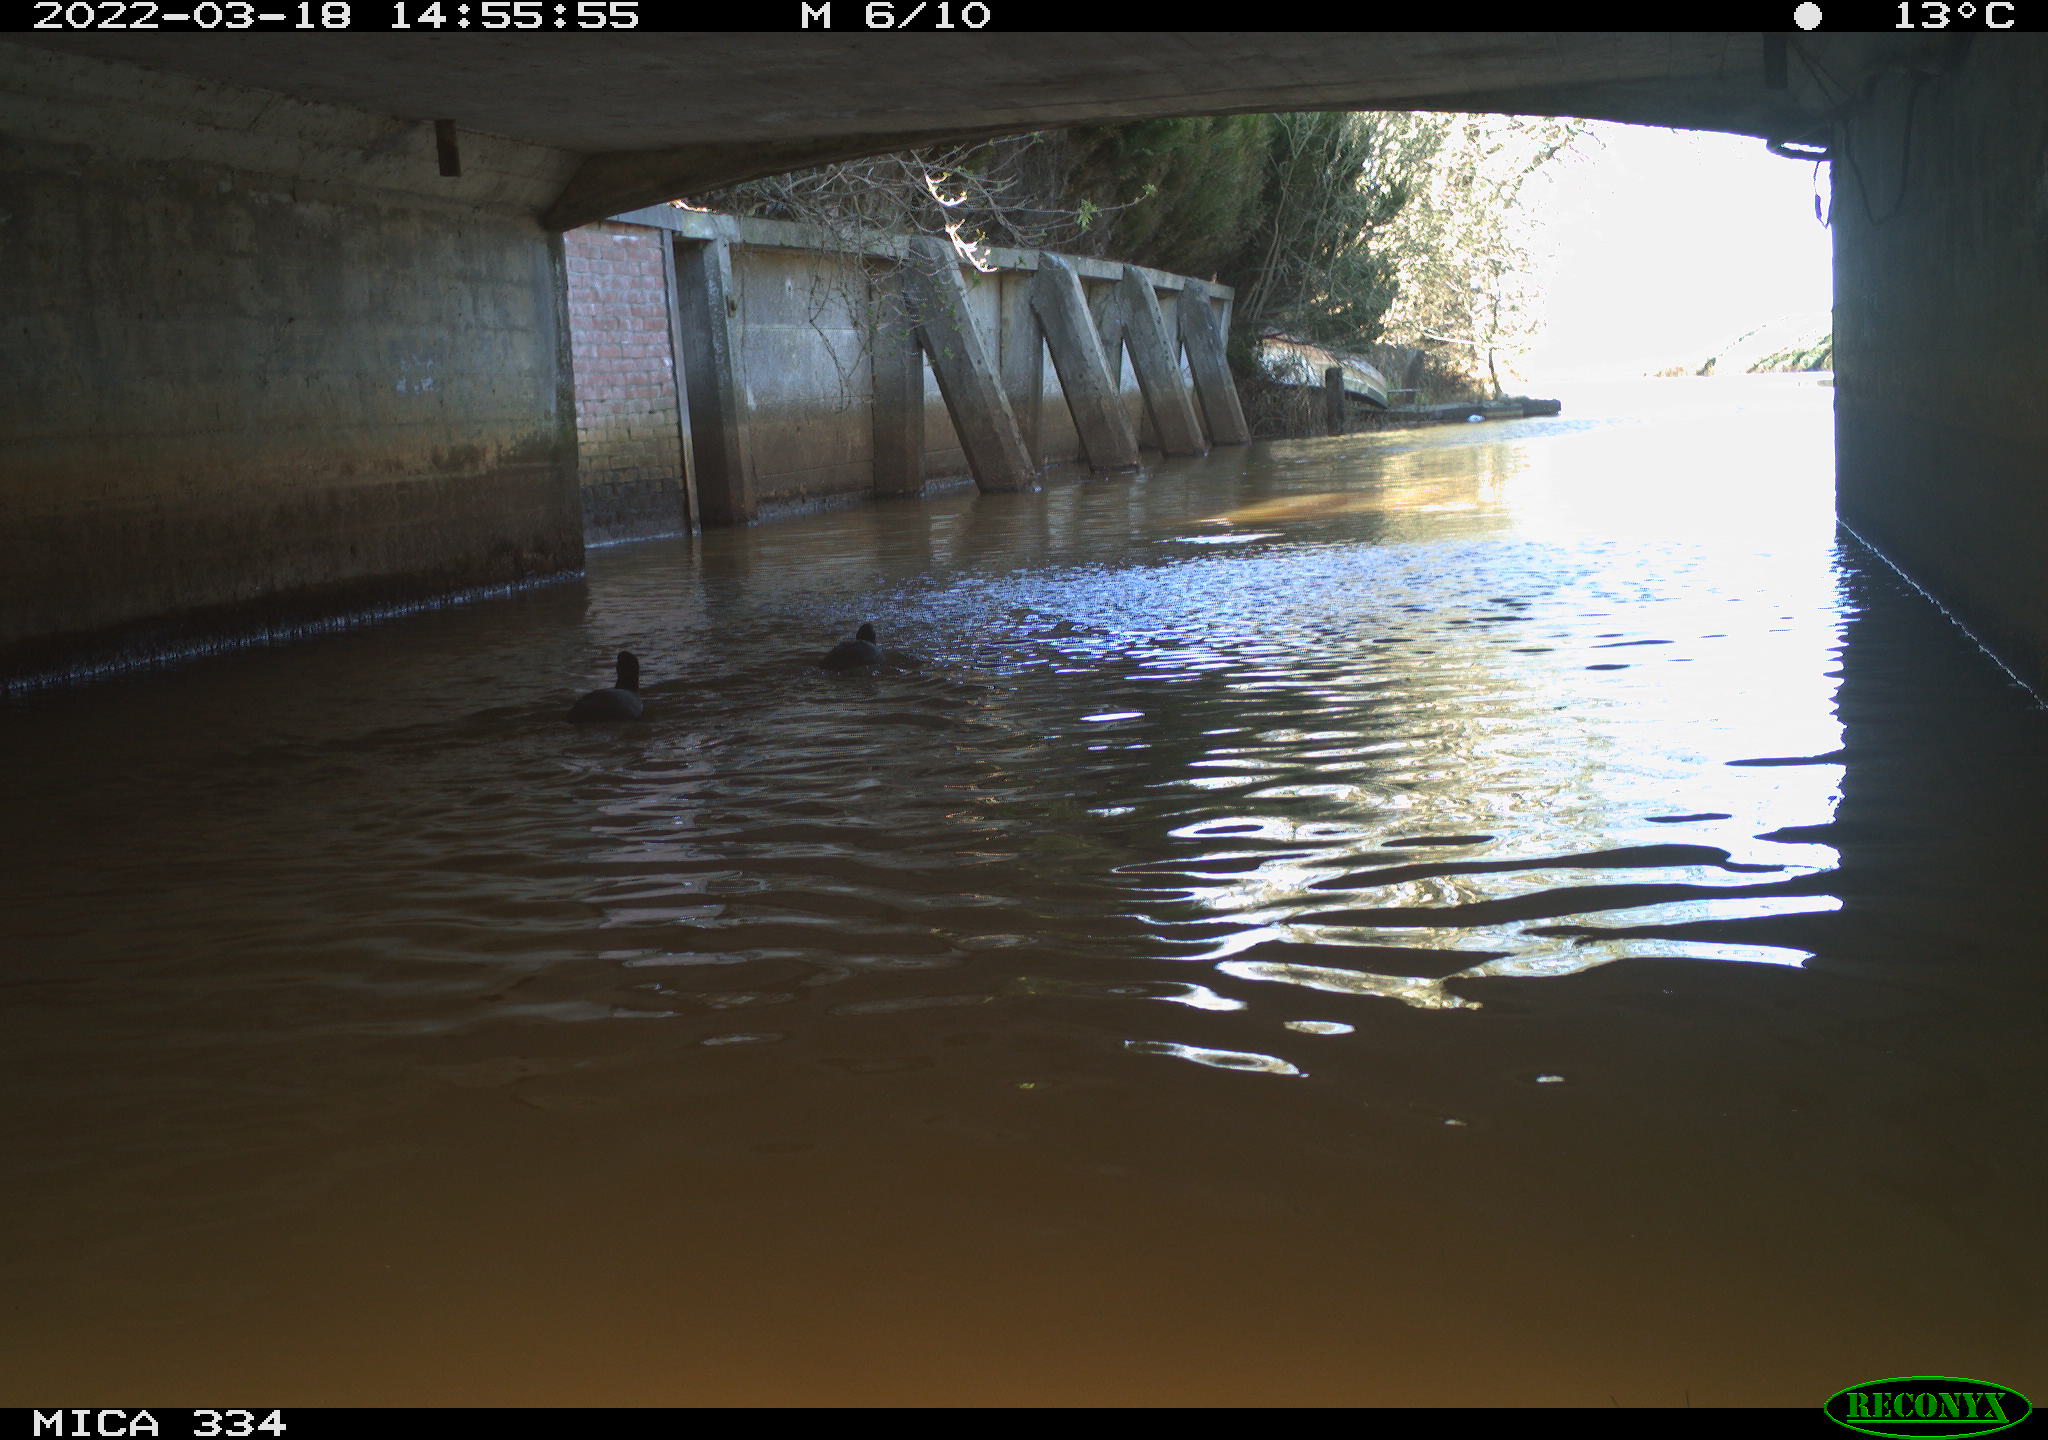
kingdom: Animalia
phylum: Chordata
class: Aves
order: Gruiformes
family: Rallidae
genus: Fulica
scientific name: Fulica atra
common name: Eurasian coot
